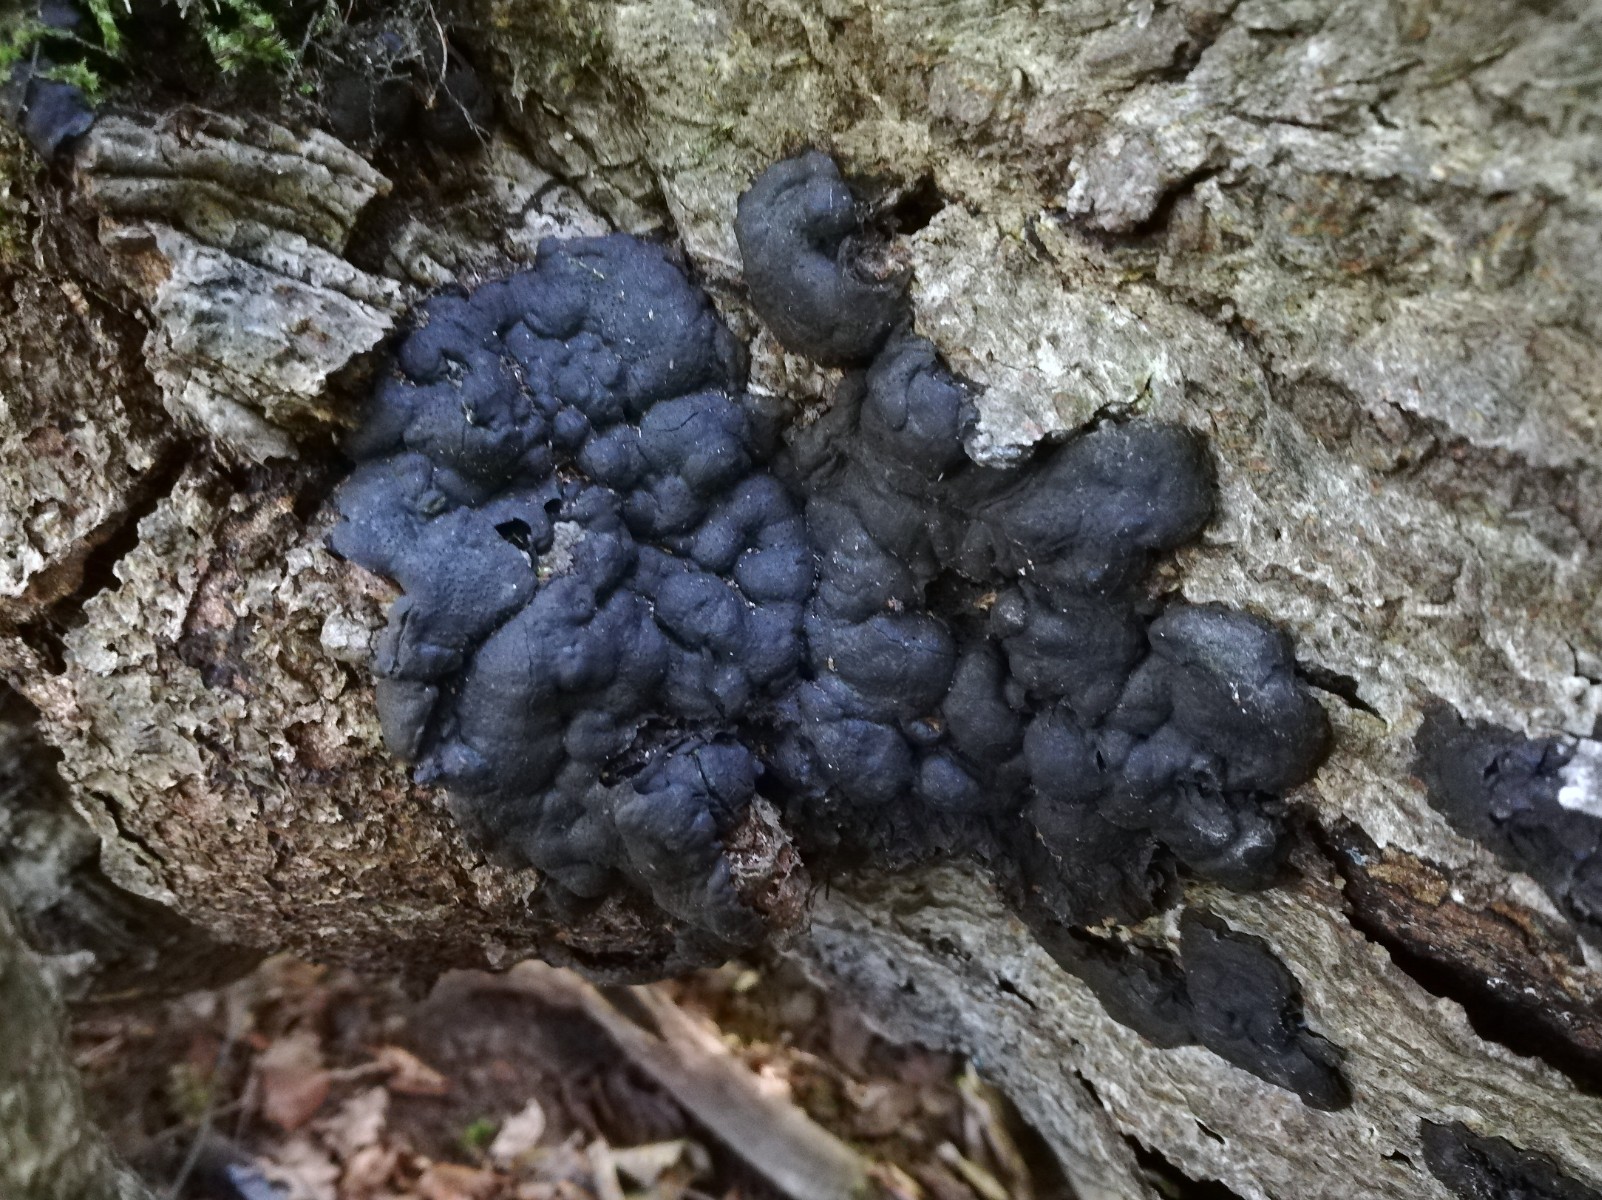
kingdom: Fungi
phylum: Ascomycota
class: Sordariomycetes
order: Xylariales
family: Xylariaceae
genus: Kretzschmaria
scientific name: Kretzschmaria deusta
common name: stor kulsvamp
